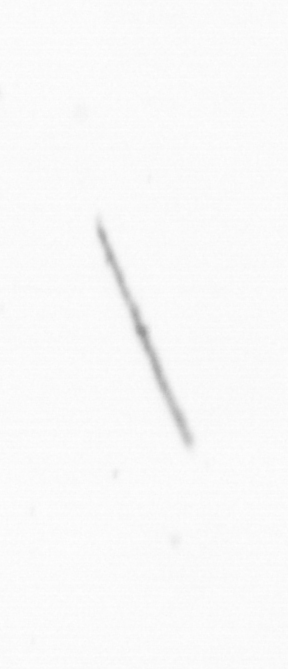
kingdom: Chromista
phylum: Ochrophyta
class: Bacillariophyceae
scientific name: Bacillariophyceae
